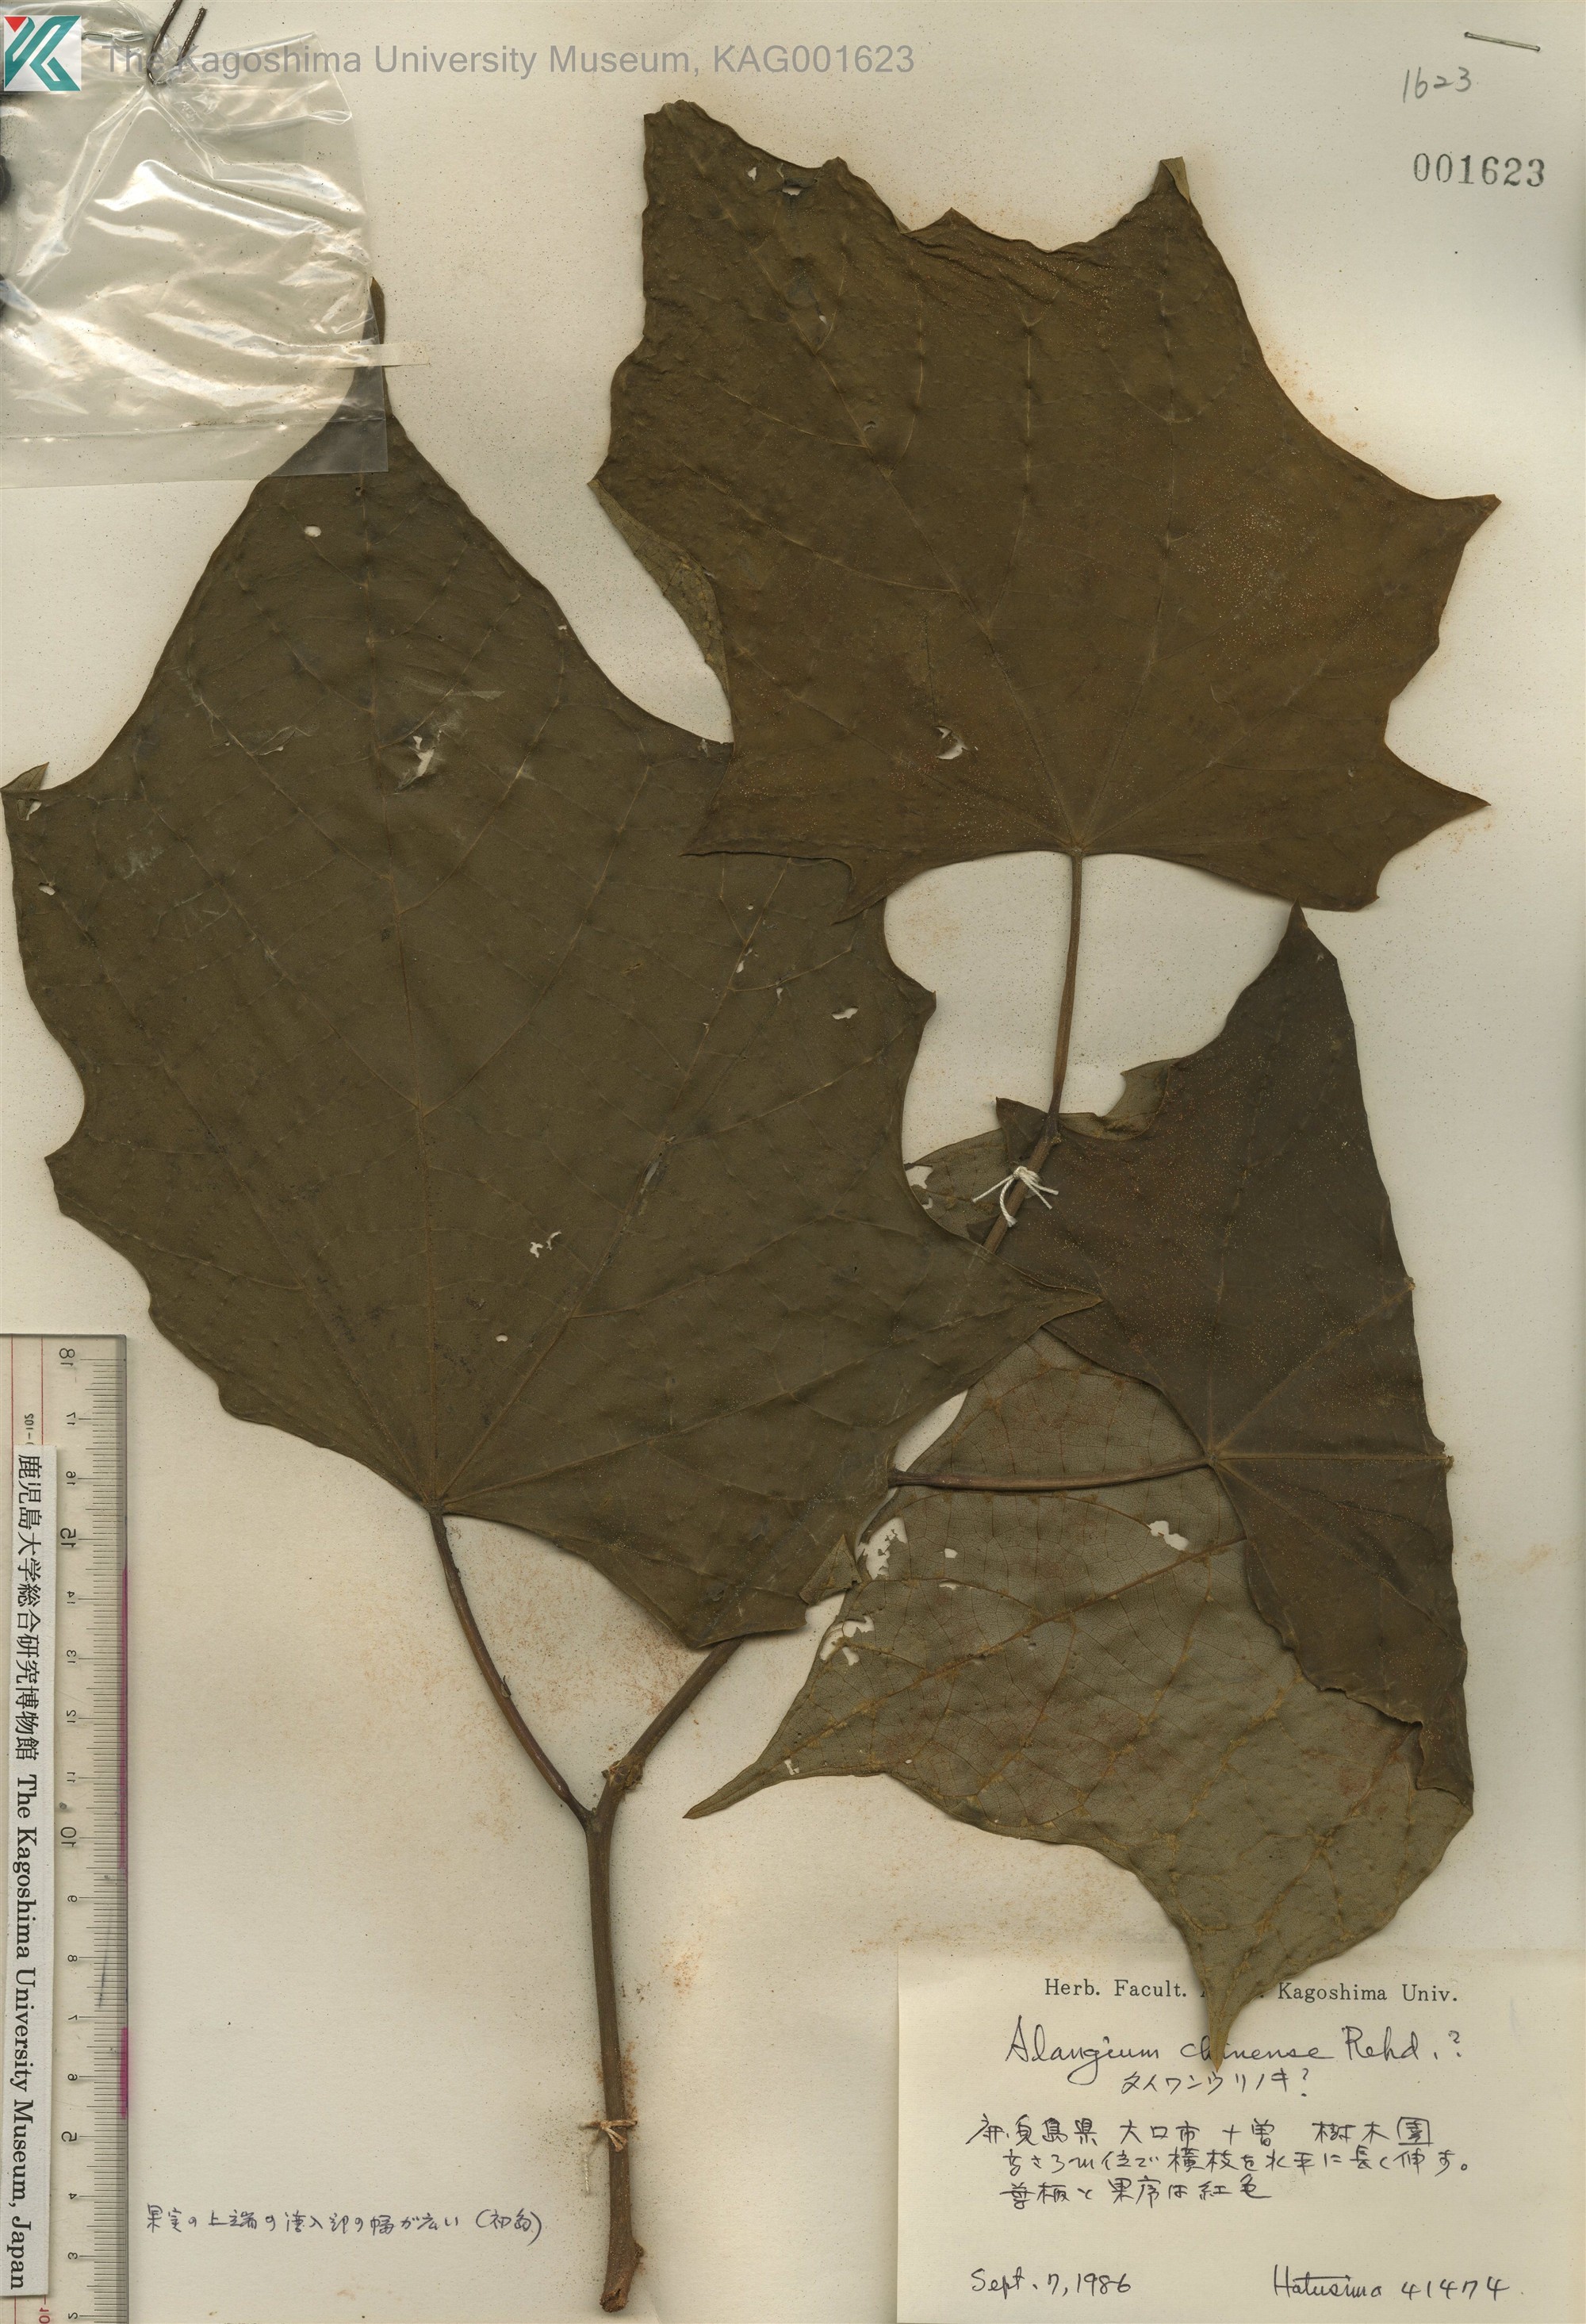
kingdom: Plantae
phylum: Tracheophyta
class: Magnoliopsida
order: Cornales
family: Cornaceae
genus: Alangium
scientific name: Alangium
